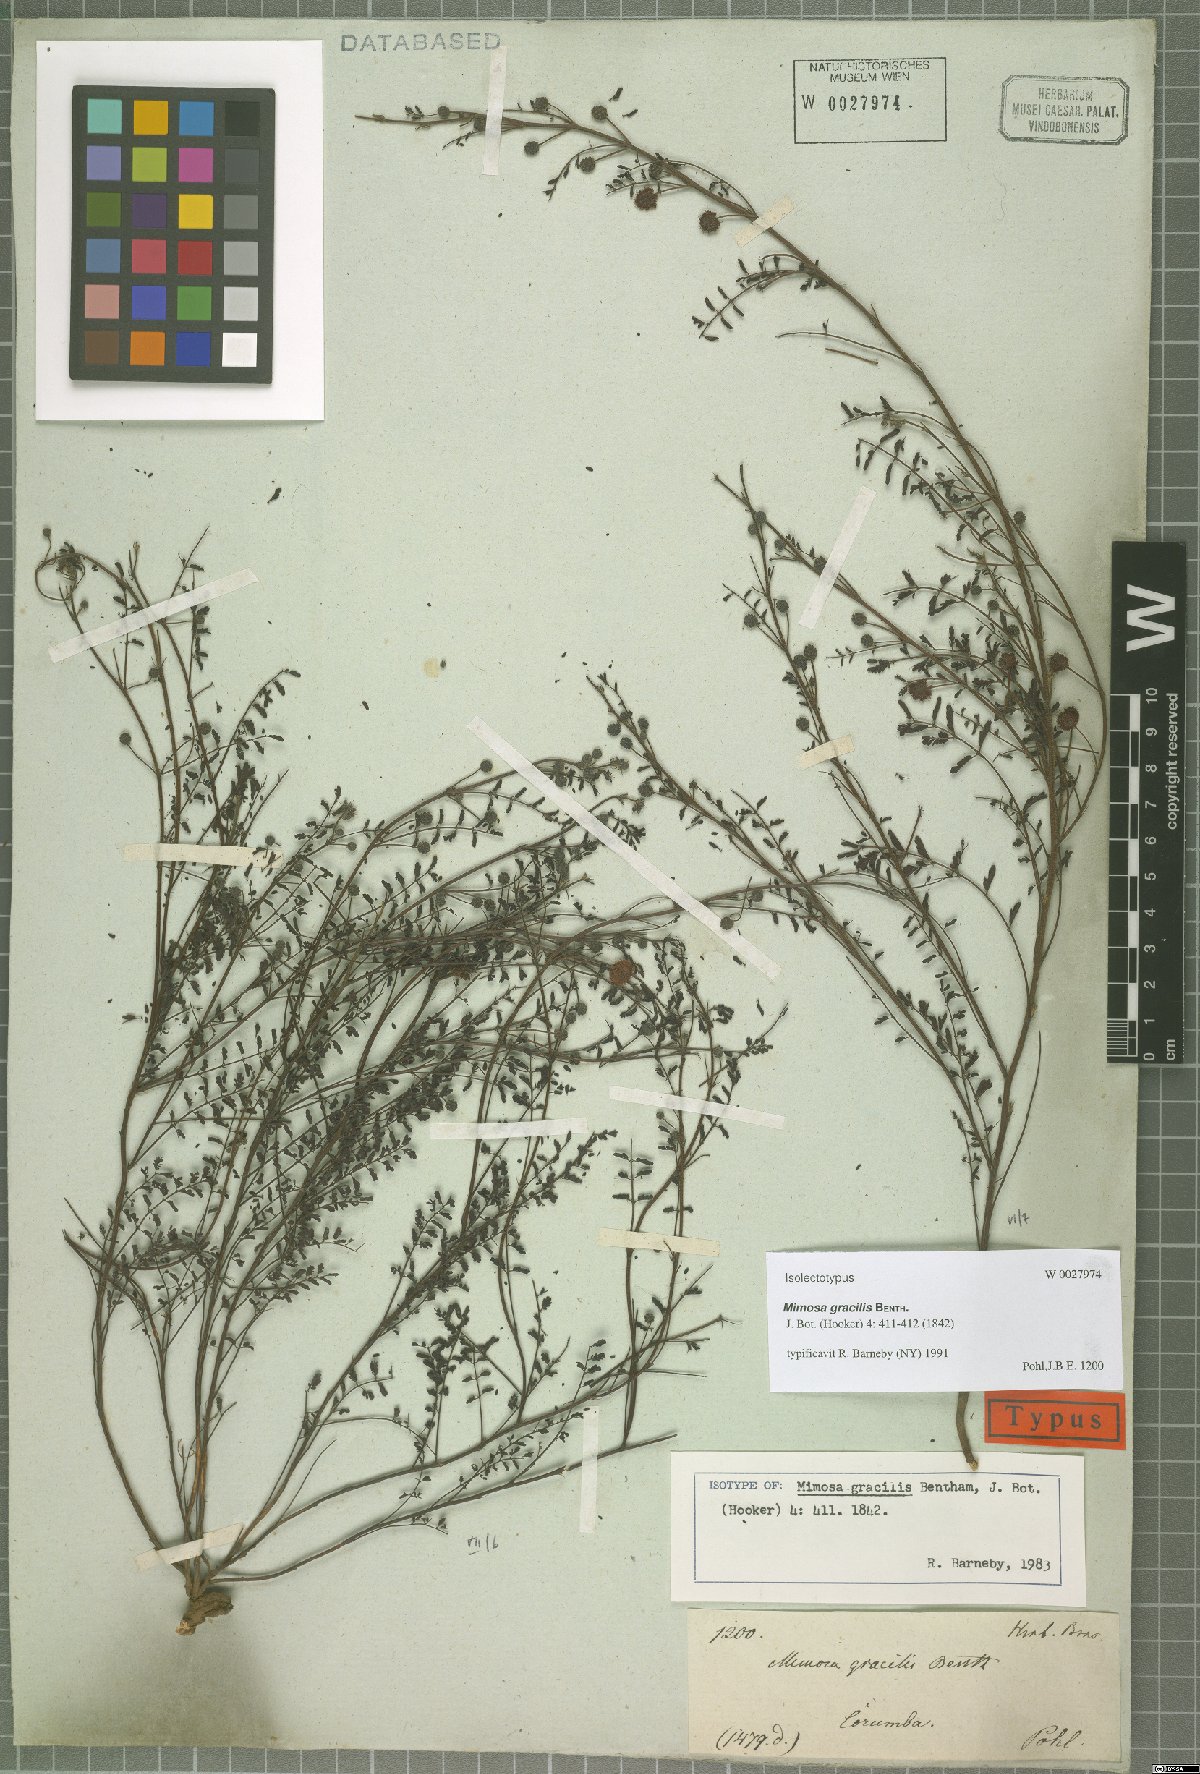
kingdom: Plantae
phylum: Tracheophyta
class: Magnoliopsida
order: Fabales
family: Fabaceae
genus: Mimosa
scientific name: Mimosa gracilis
